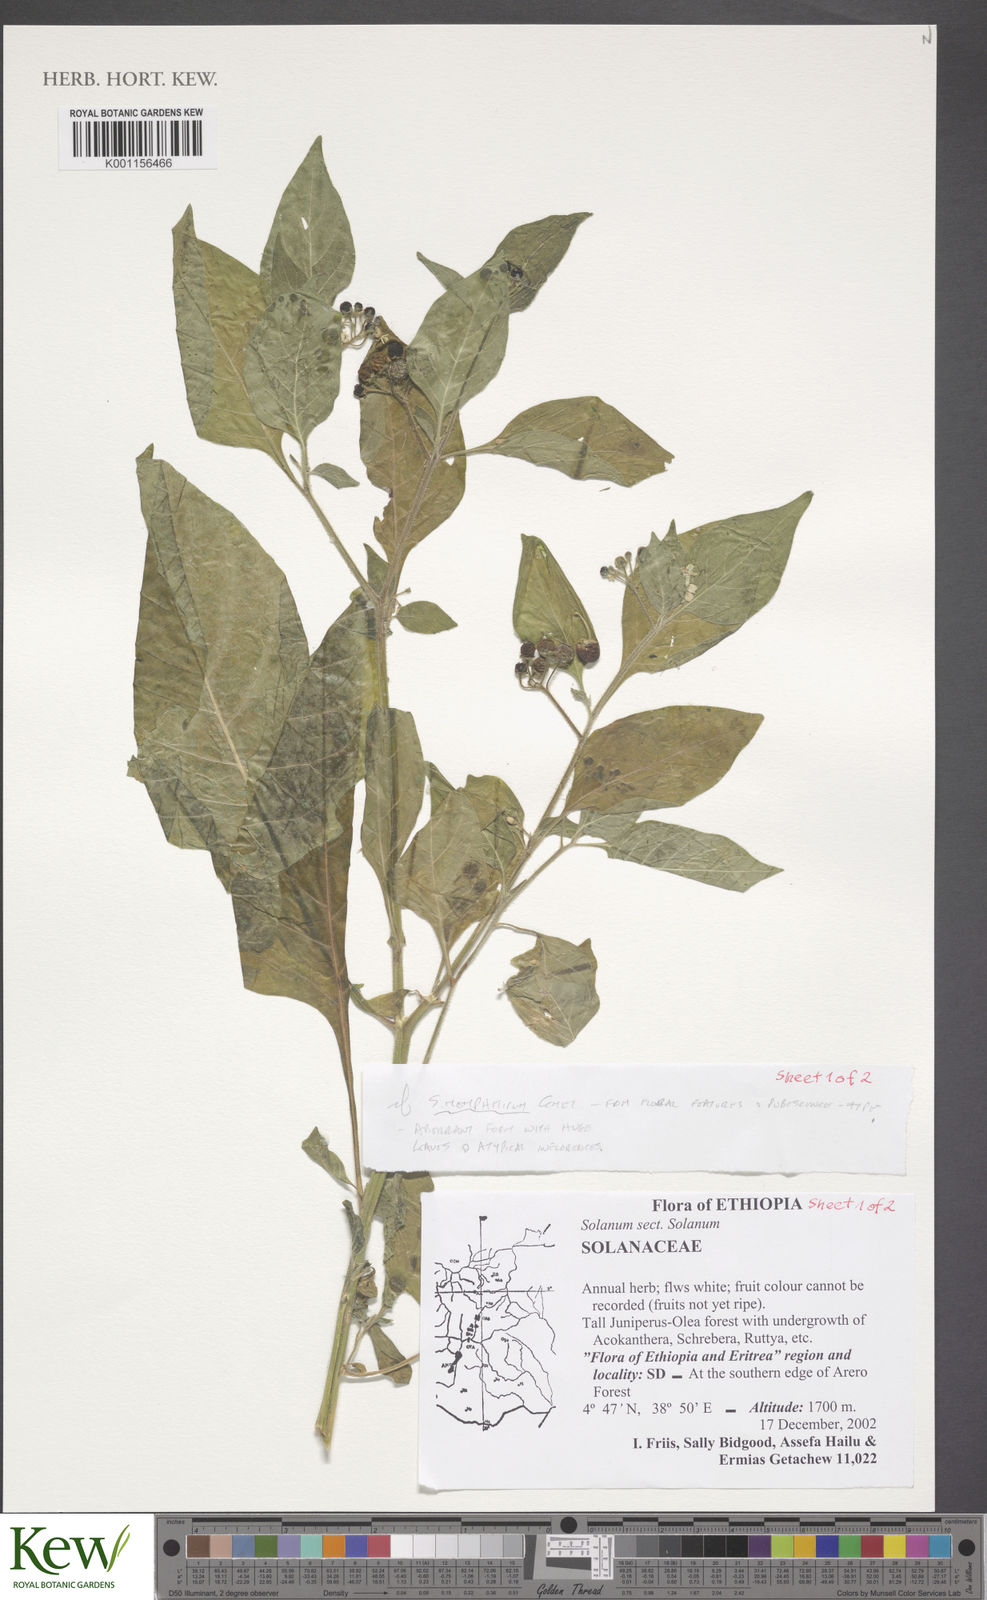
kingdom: Plantae
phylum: Tracheophyta
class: Magnoliopsida
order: Solanales
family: Solanaceae
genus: Solanum
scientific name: Solanum tarderemotum
